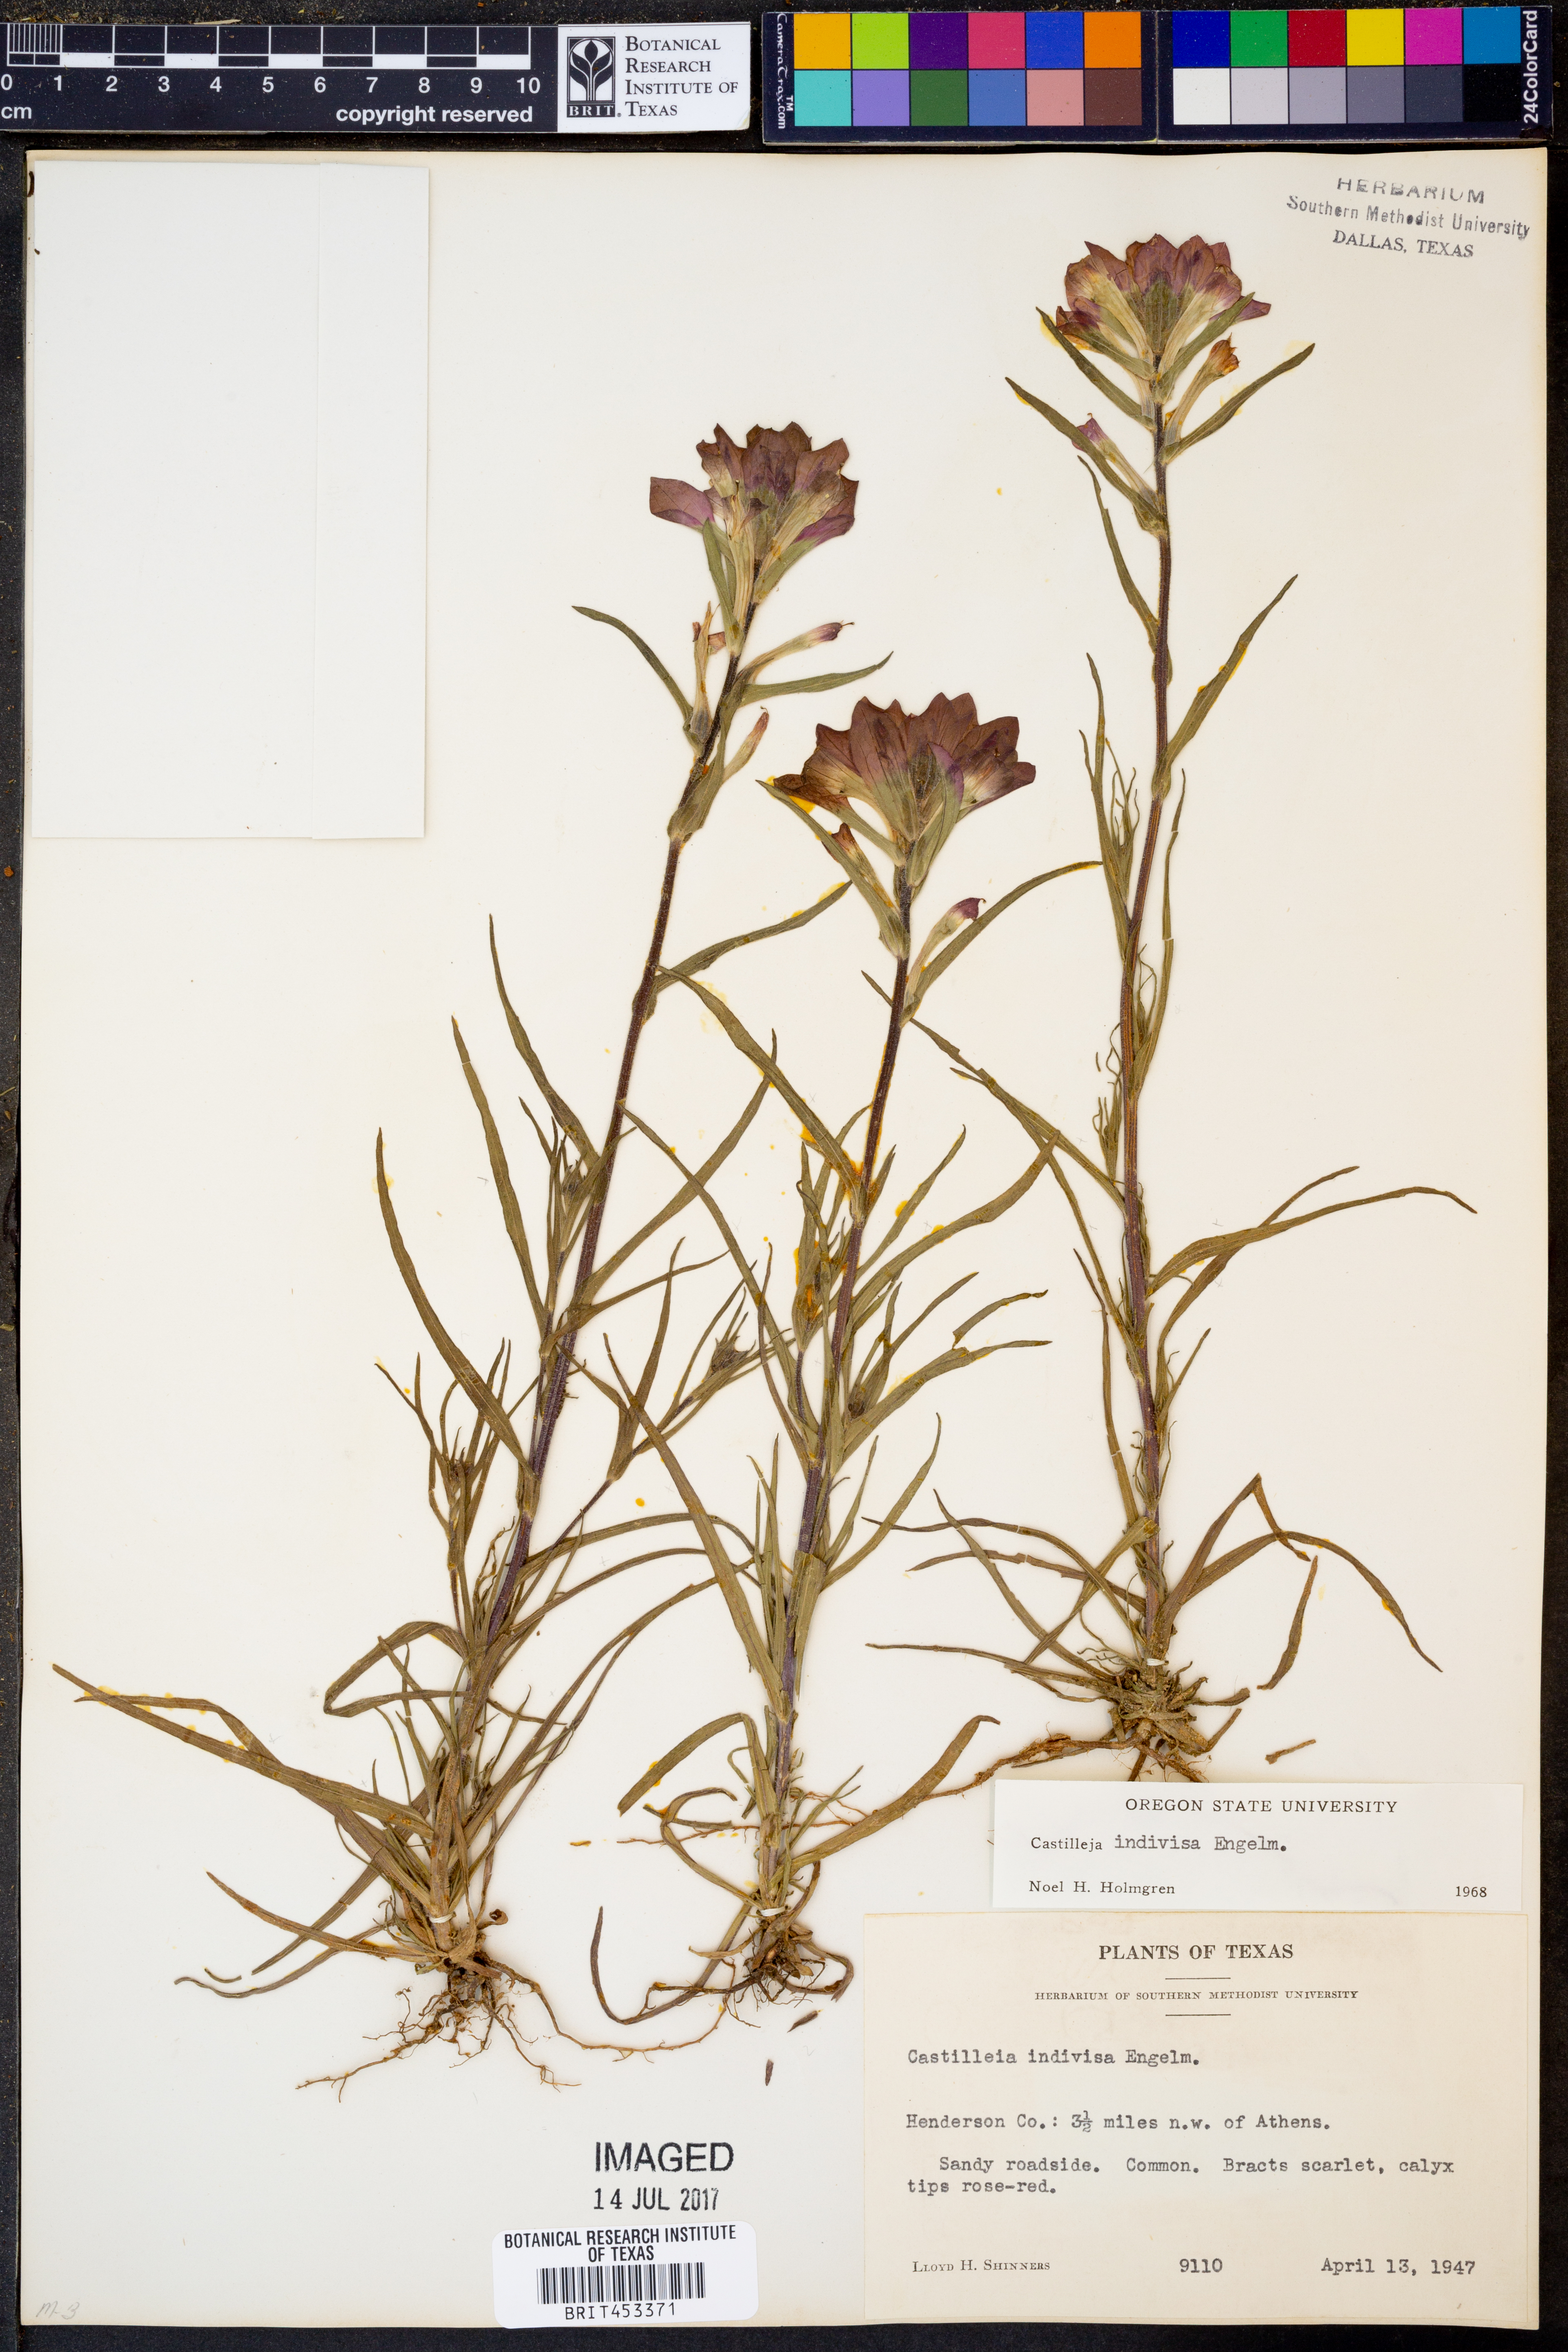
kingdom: Plantae
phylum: Tracheophyta
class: Magnoliopsida
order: Lamiales
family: Orobanchaceae
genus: Castilleja
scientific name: Castilleja indivisa
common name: Texas paintbrush
